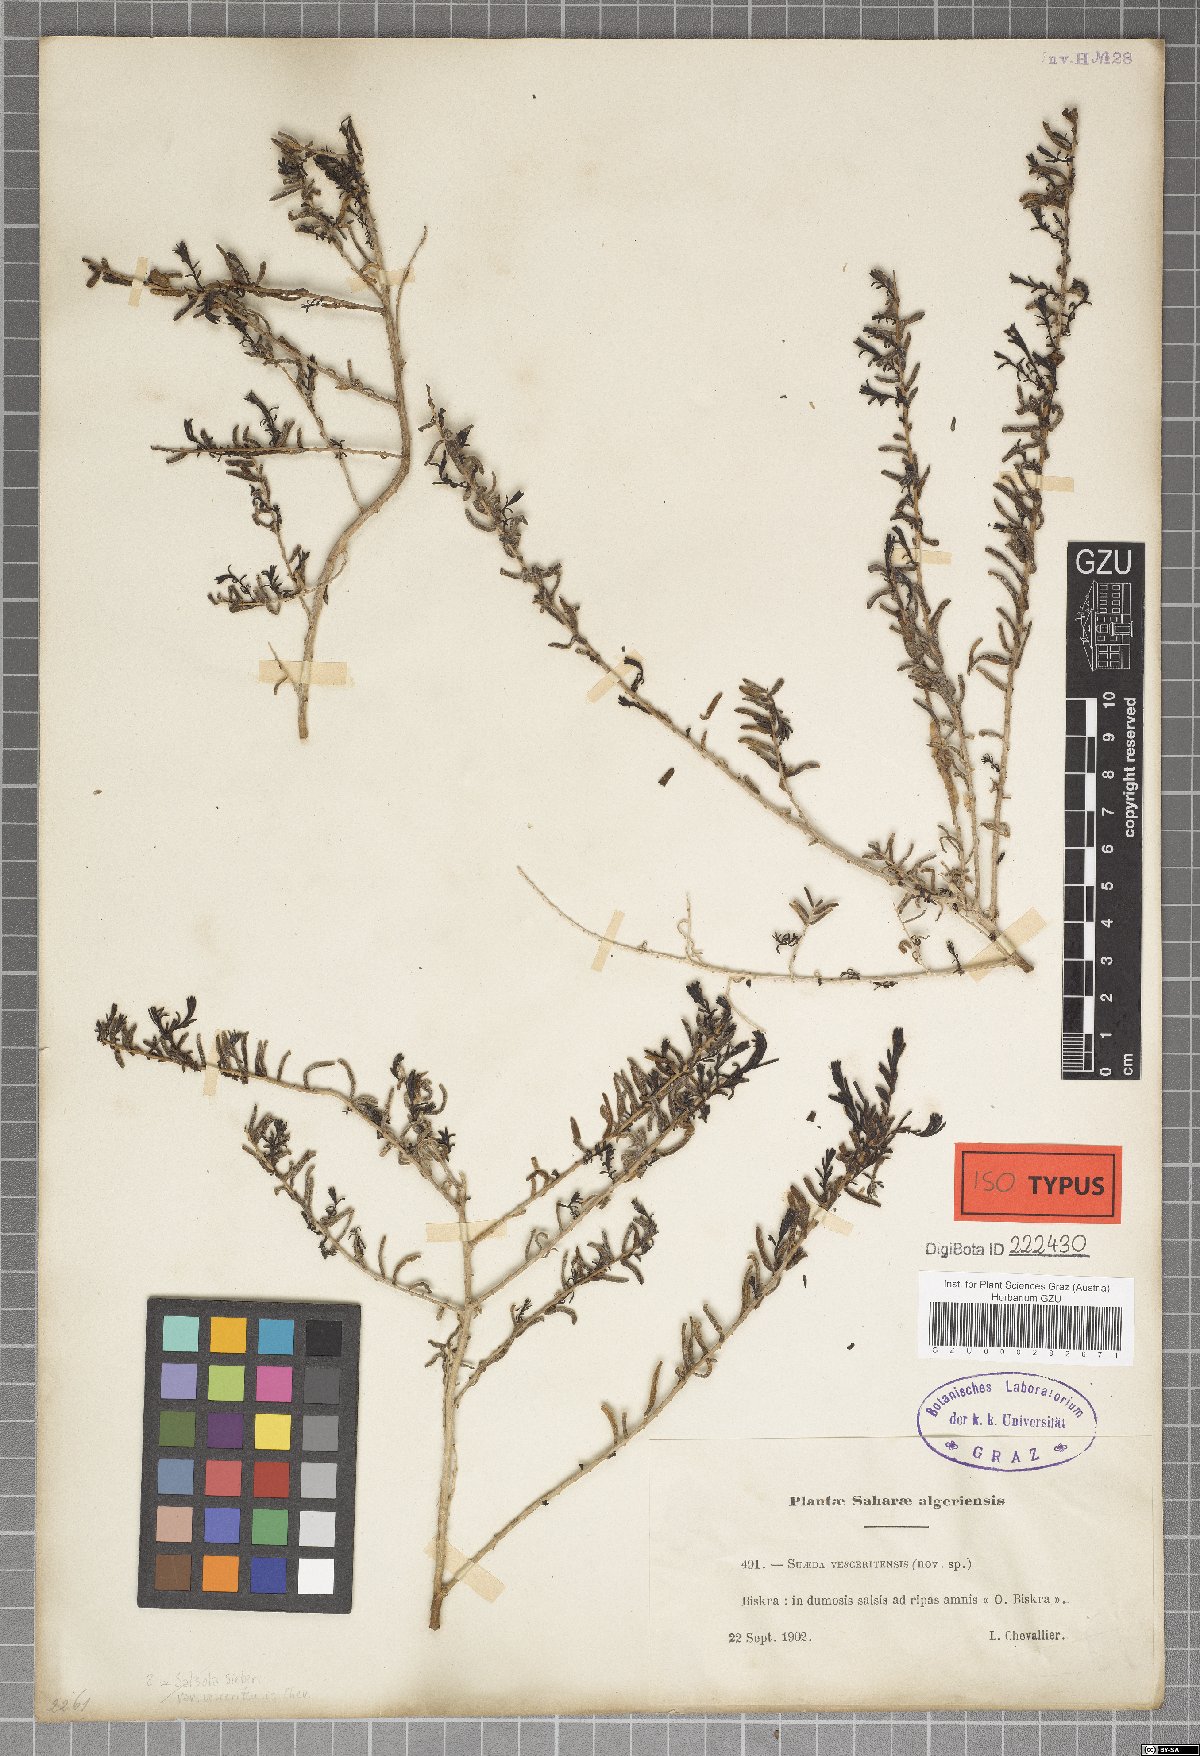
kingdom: Plantae
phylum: Tracheophyta
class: Magnoliopsida
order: Caryophyllales
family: Amaranthaceae
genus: Suaeda
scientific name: Suaeda vera
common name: Shrubby sea-blite
